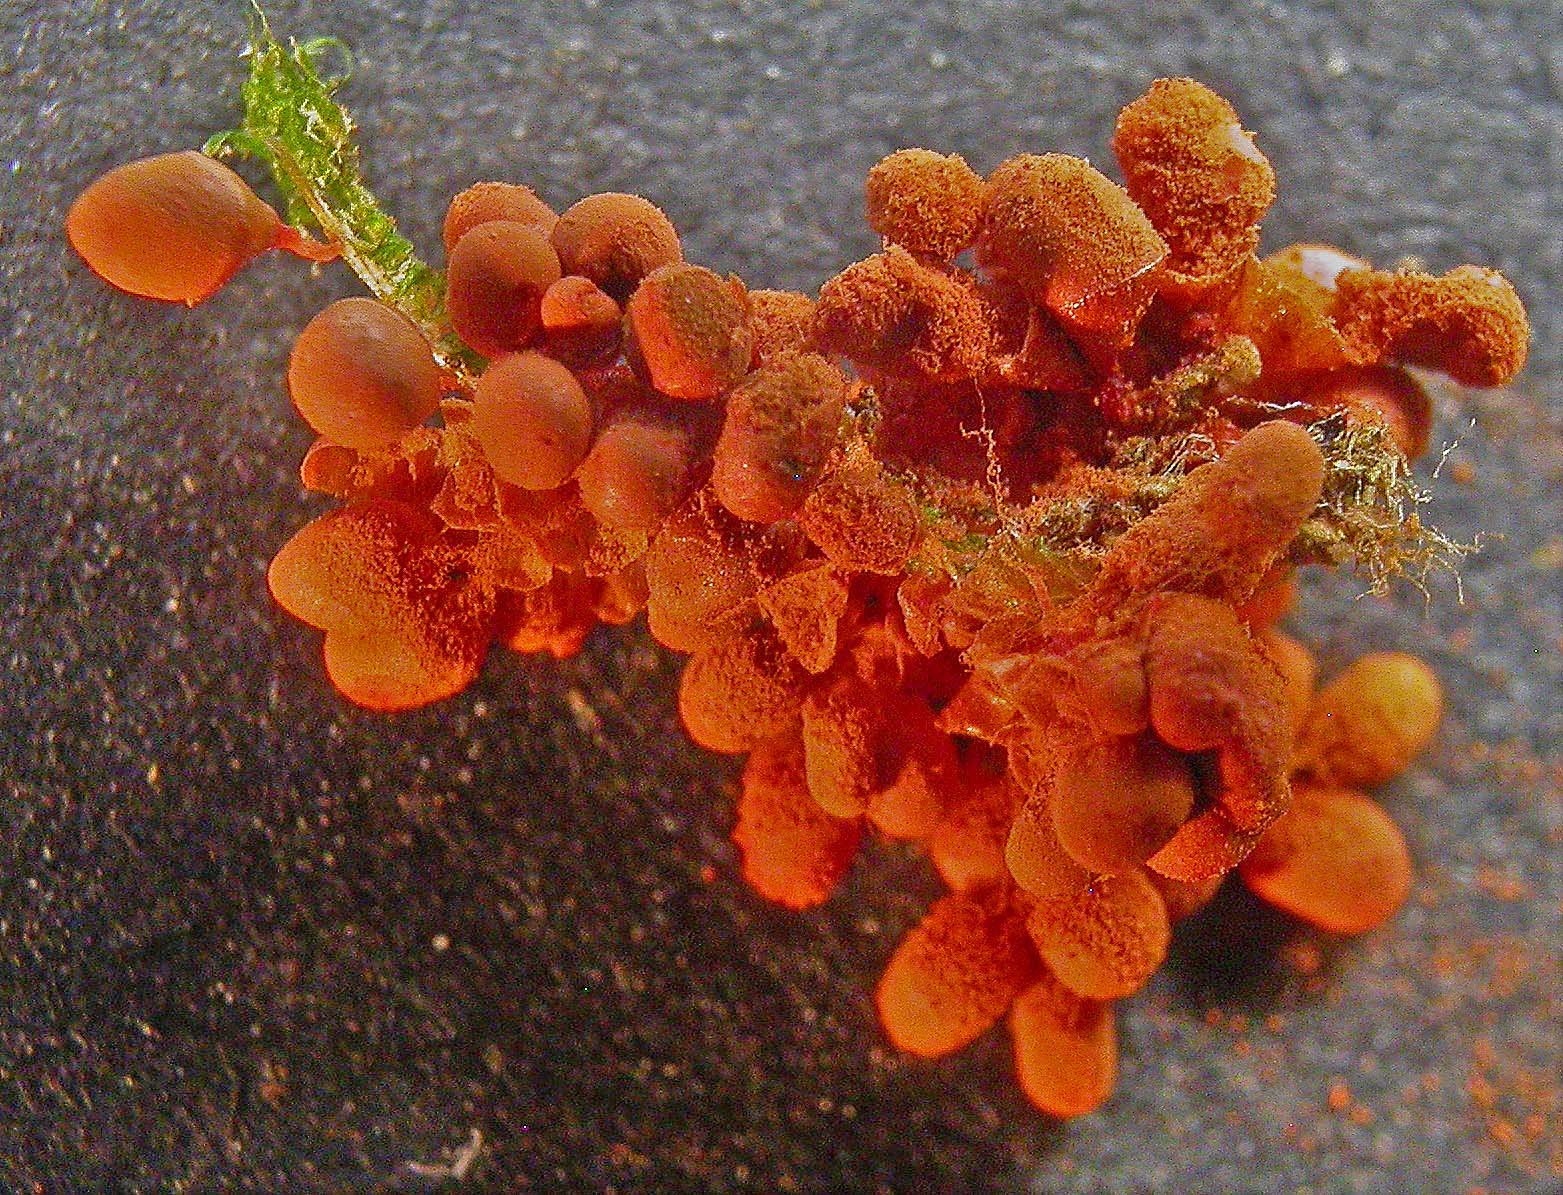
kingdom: Protozoa
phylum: Mycetozoa
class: Myxomycetes
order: Trichiales
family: Arcyriaceae
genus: Arcyria
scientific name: Arcyria ferruginea
